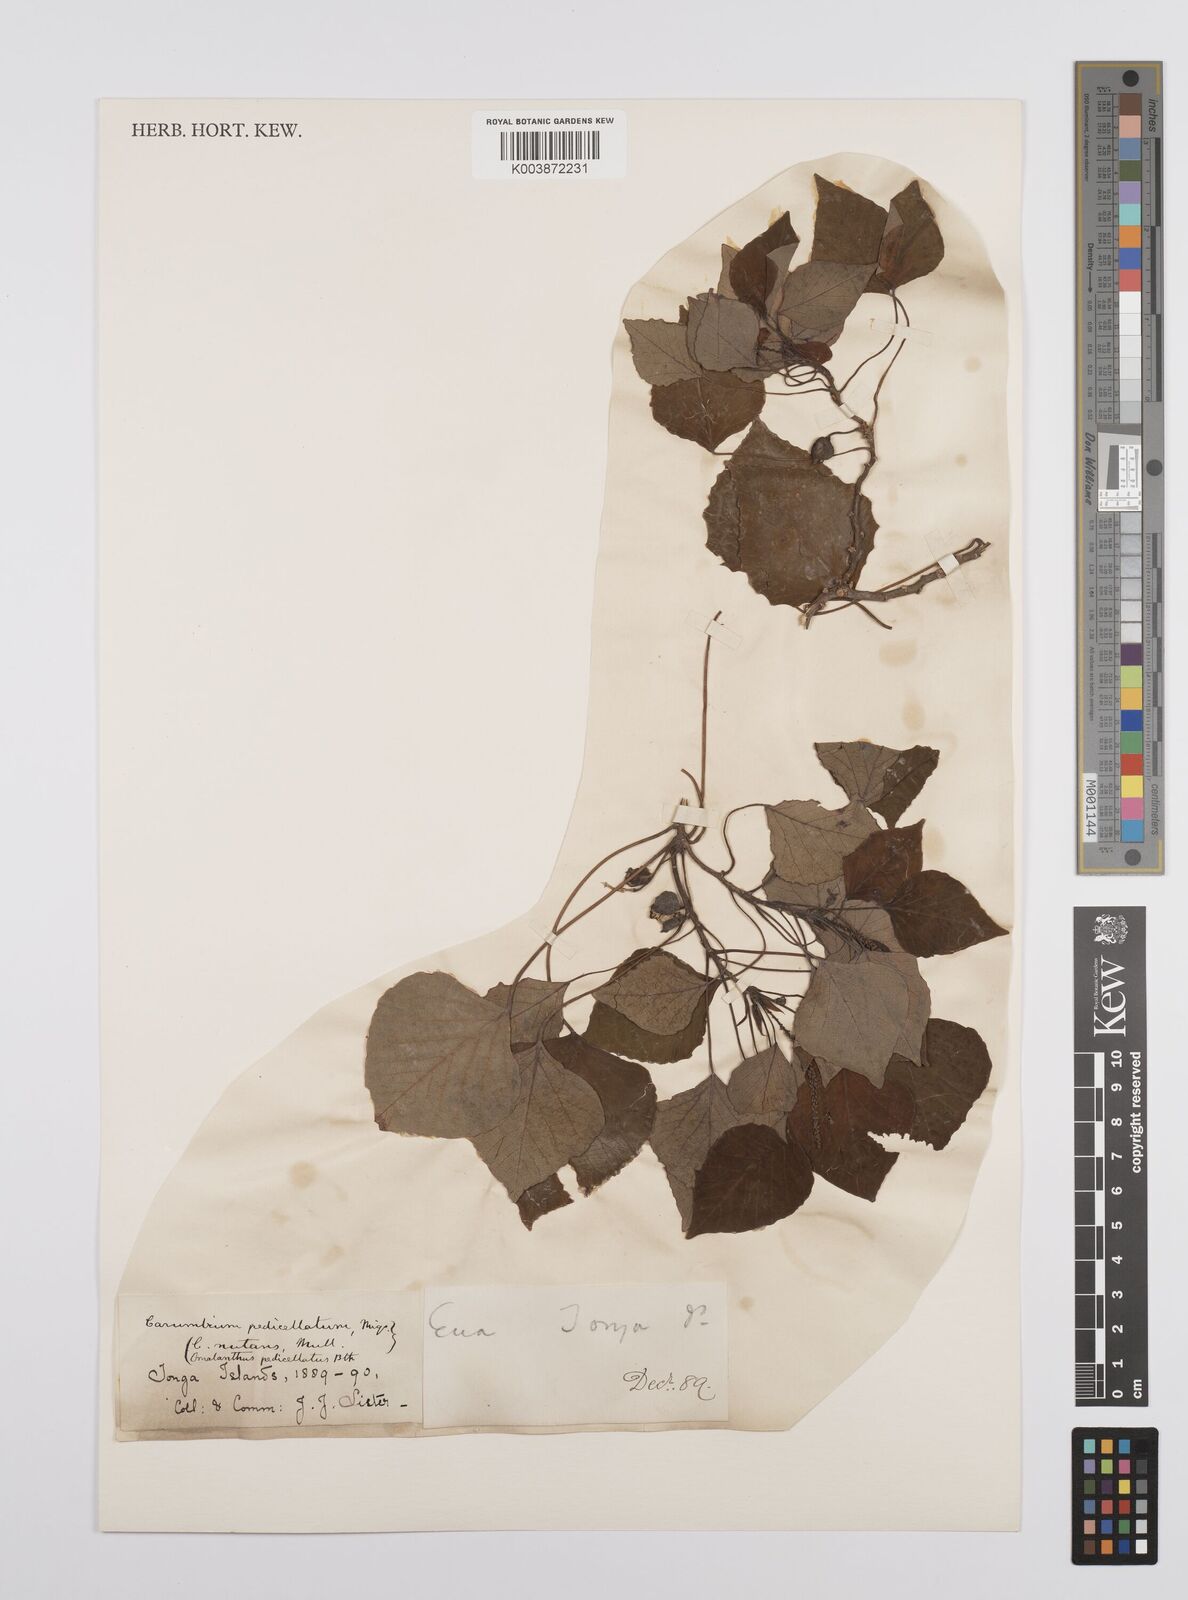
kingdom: Plantae
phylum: Tracheophyta
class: Magnoliopsida
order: Malpighiales
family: Euphorbiaceae
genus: Homalanthus
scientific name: Homalanthus nutans
